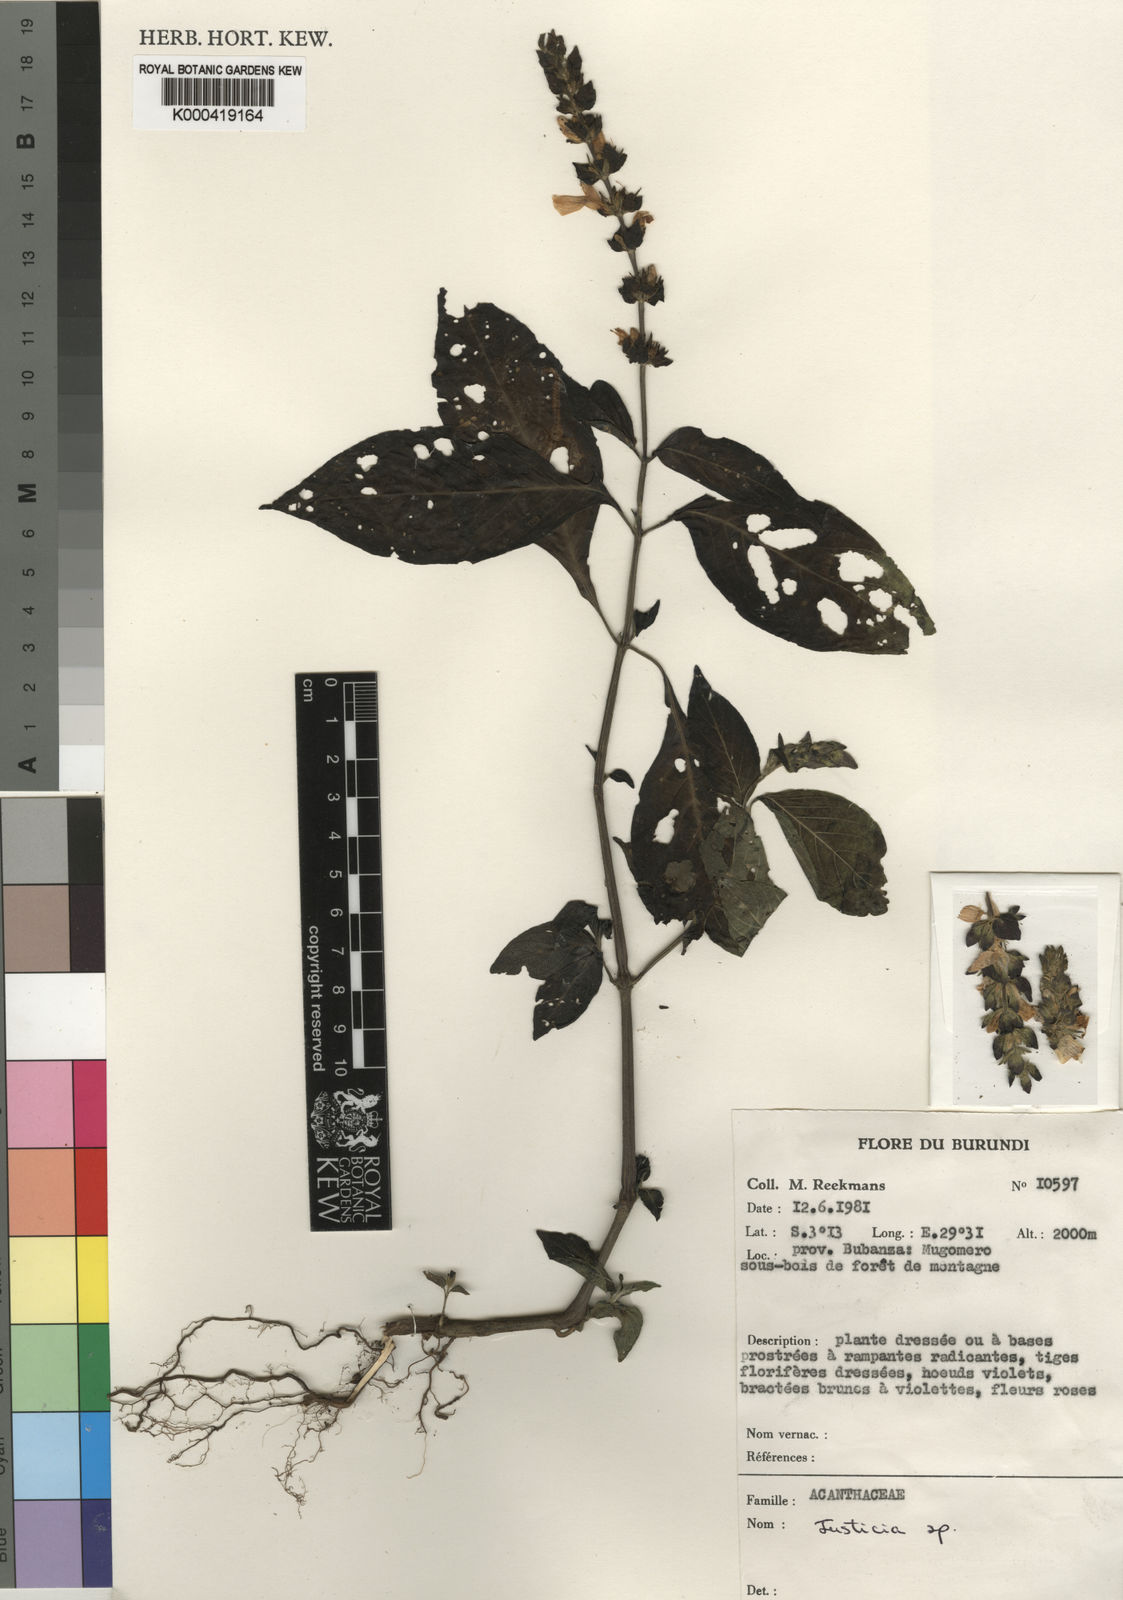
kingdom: Plantae
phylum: Tracheophyta
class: Magnoliopsida
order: Lamiales
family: Acanthaceae
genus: Justicia
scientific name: Justicia violaceotincta
